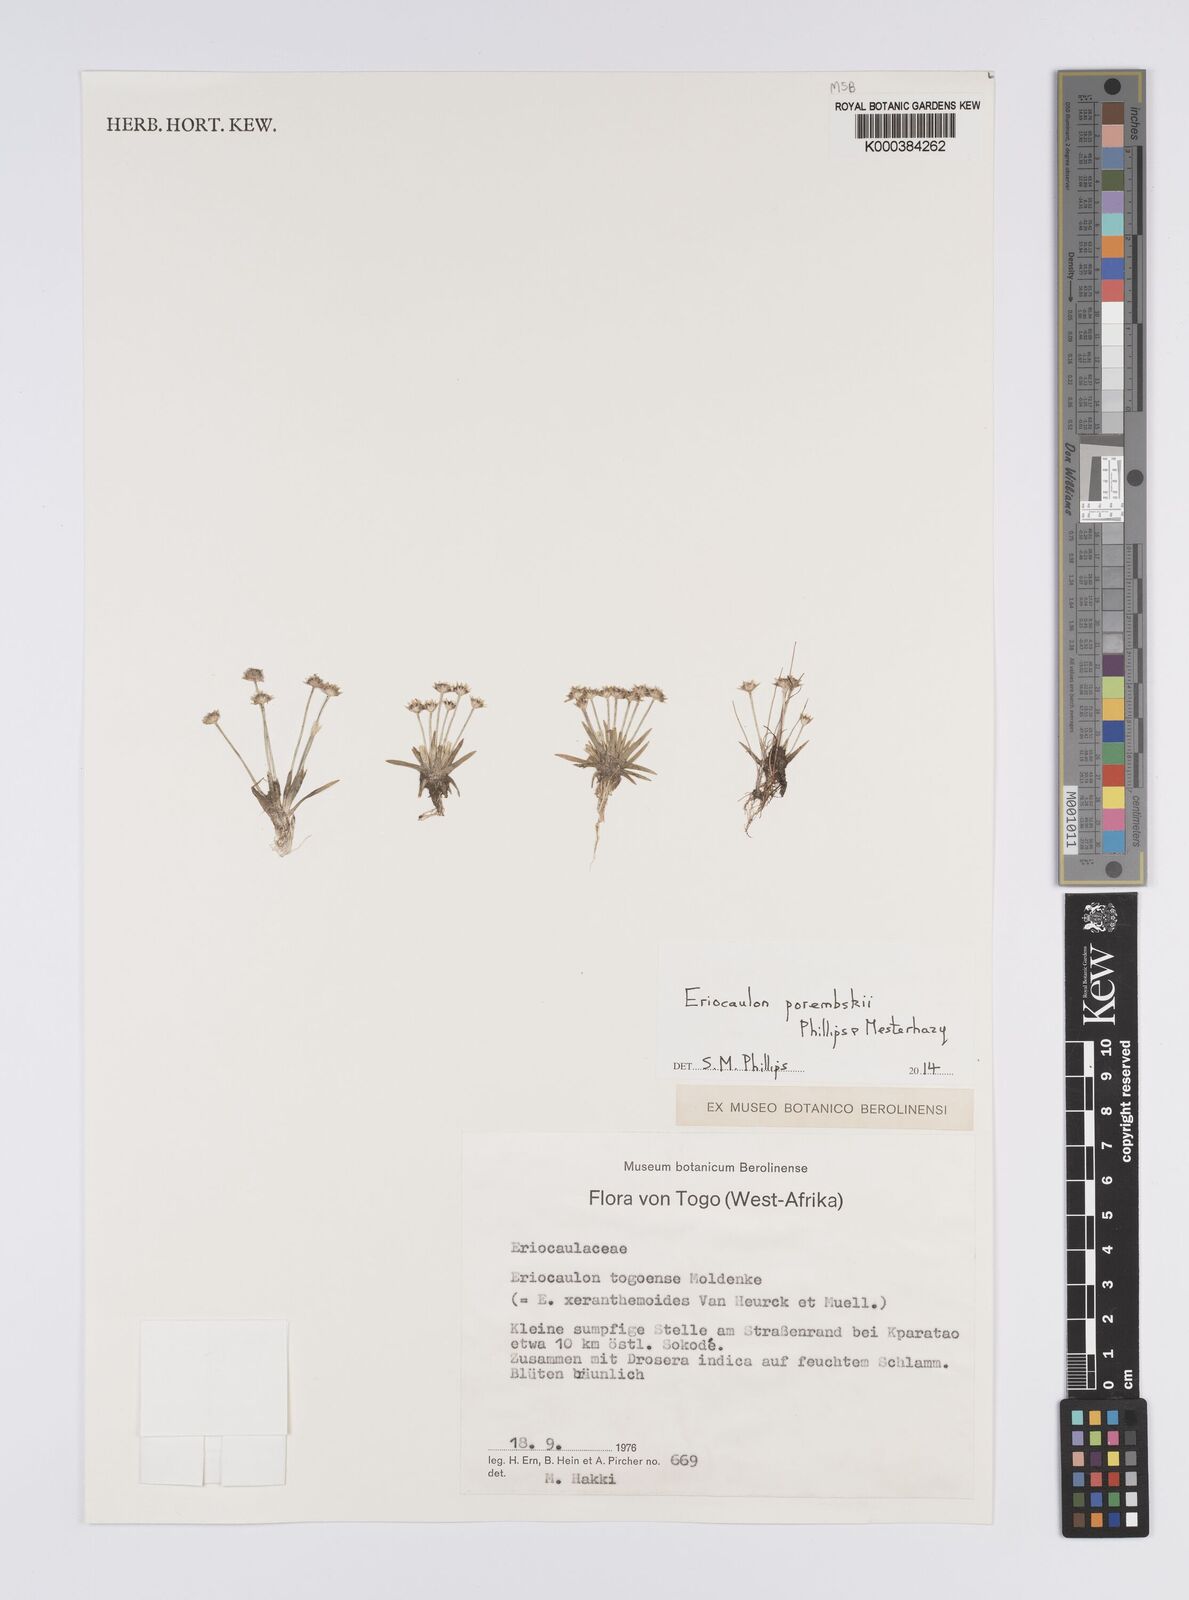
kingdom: Plantae
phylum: Tracheophyta
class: Liliopsida
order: Poales
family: Eriocaulaceae
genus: Eriocaulon
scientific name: Eriocaulon togoense
